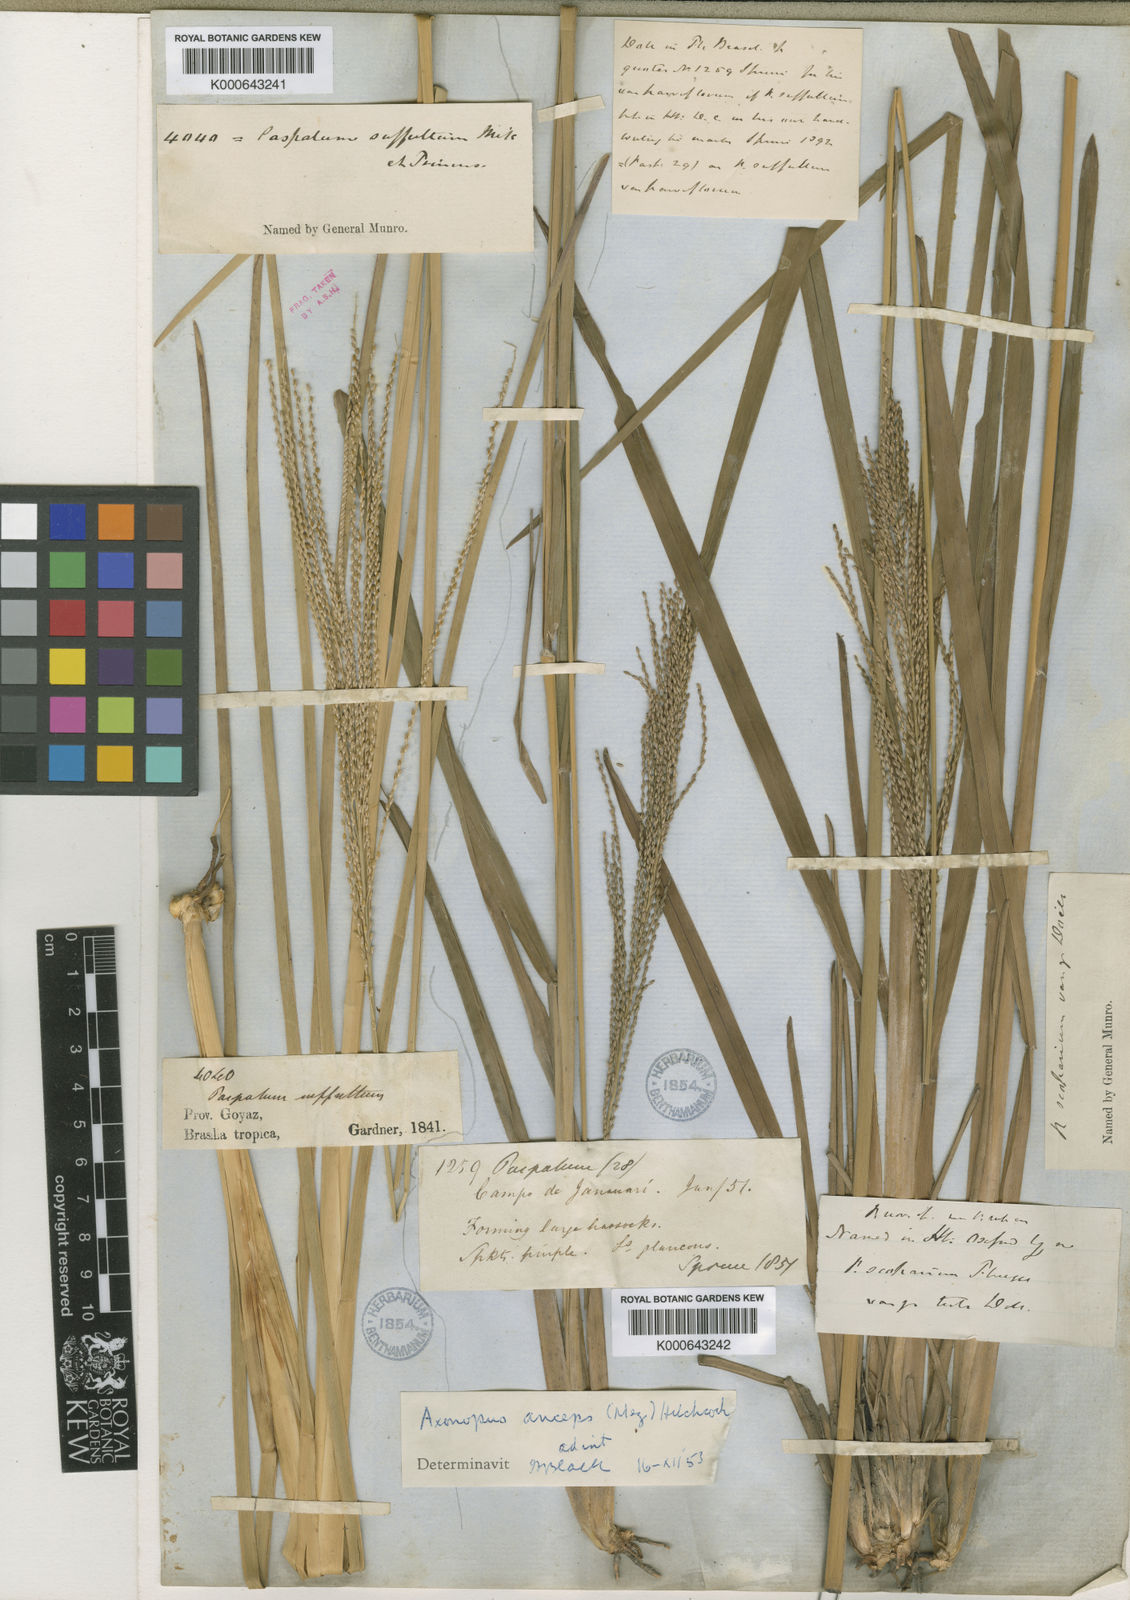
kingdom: Plantae
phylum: Tracheophyta
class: Liliopsida
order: Poales
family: Poaceae
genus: Axonopus
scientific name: Axonopus anceps
